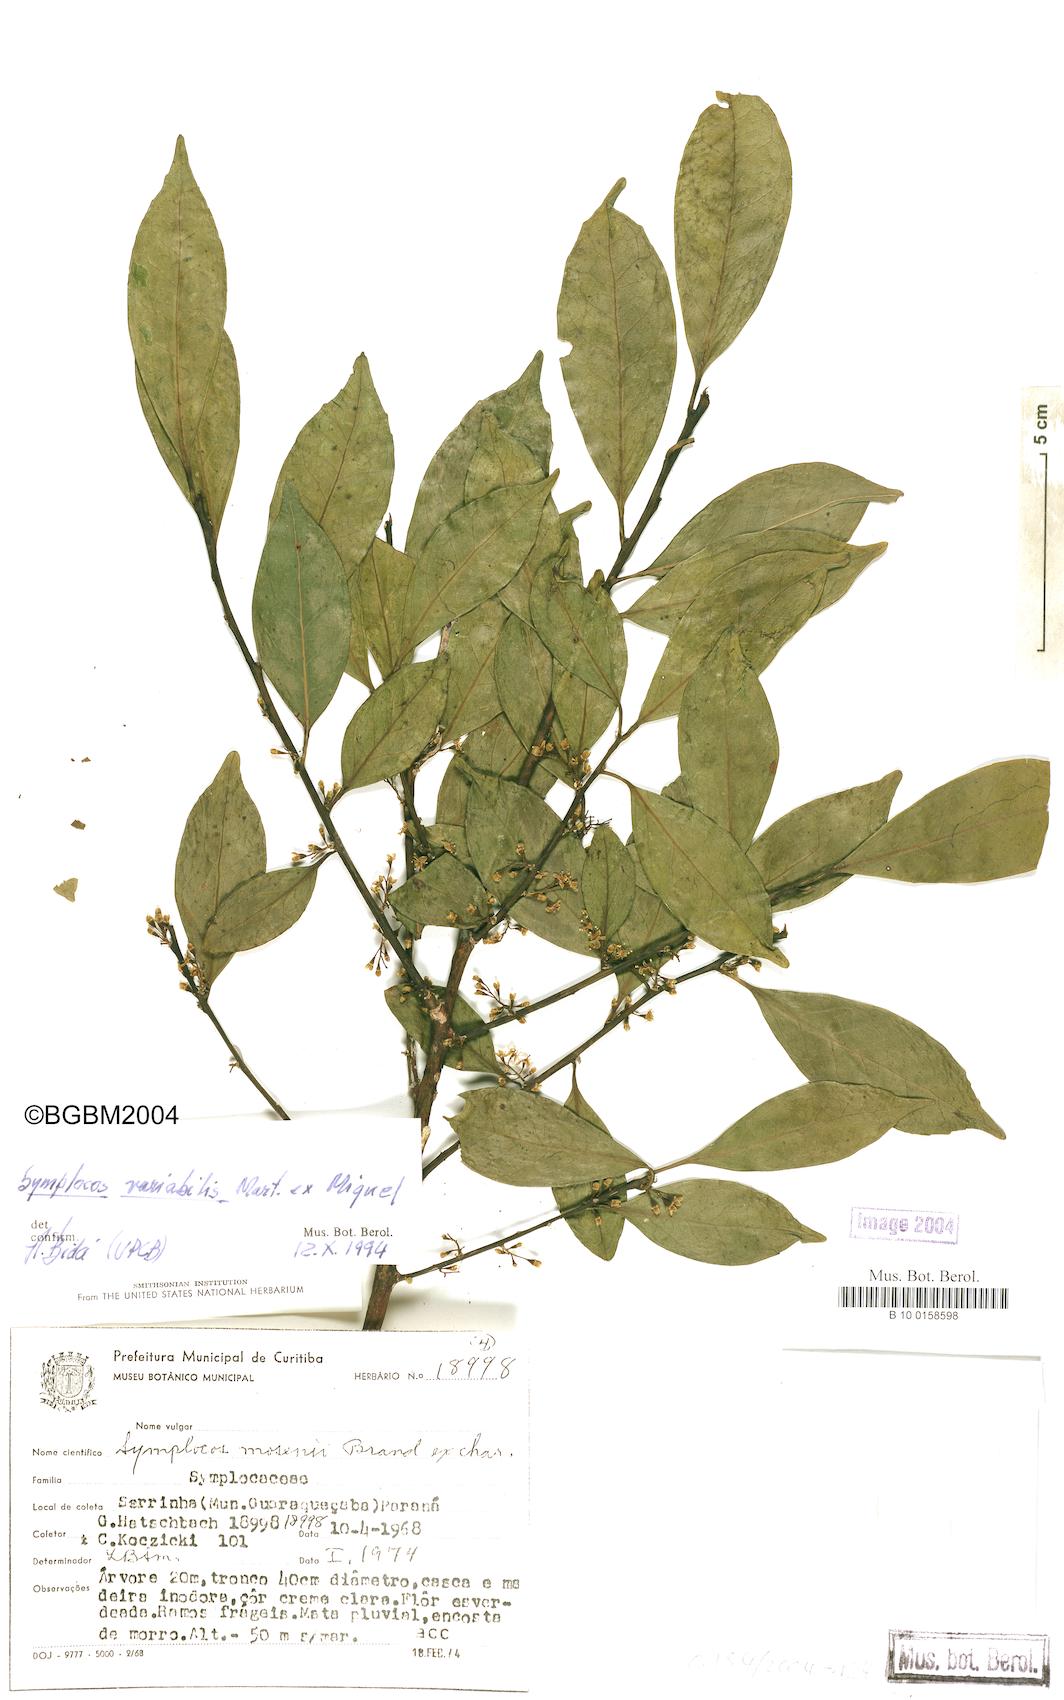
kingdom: Plantae
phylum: Tracheophyta
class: Magnoliopsida
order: Ericales
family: Symplocaceae
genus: Symplocos
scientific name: Symplocos estrellensis
